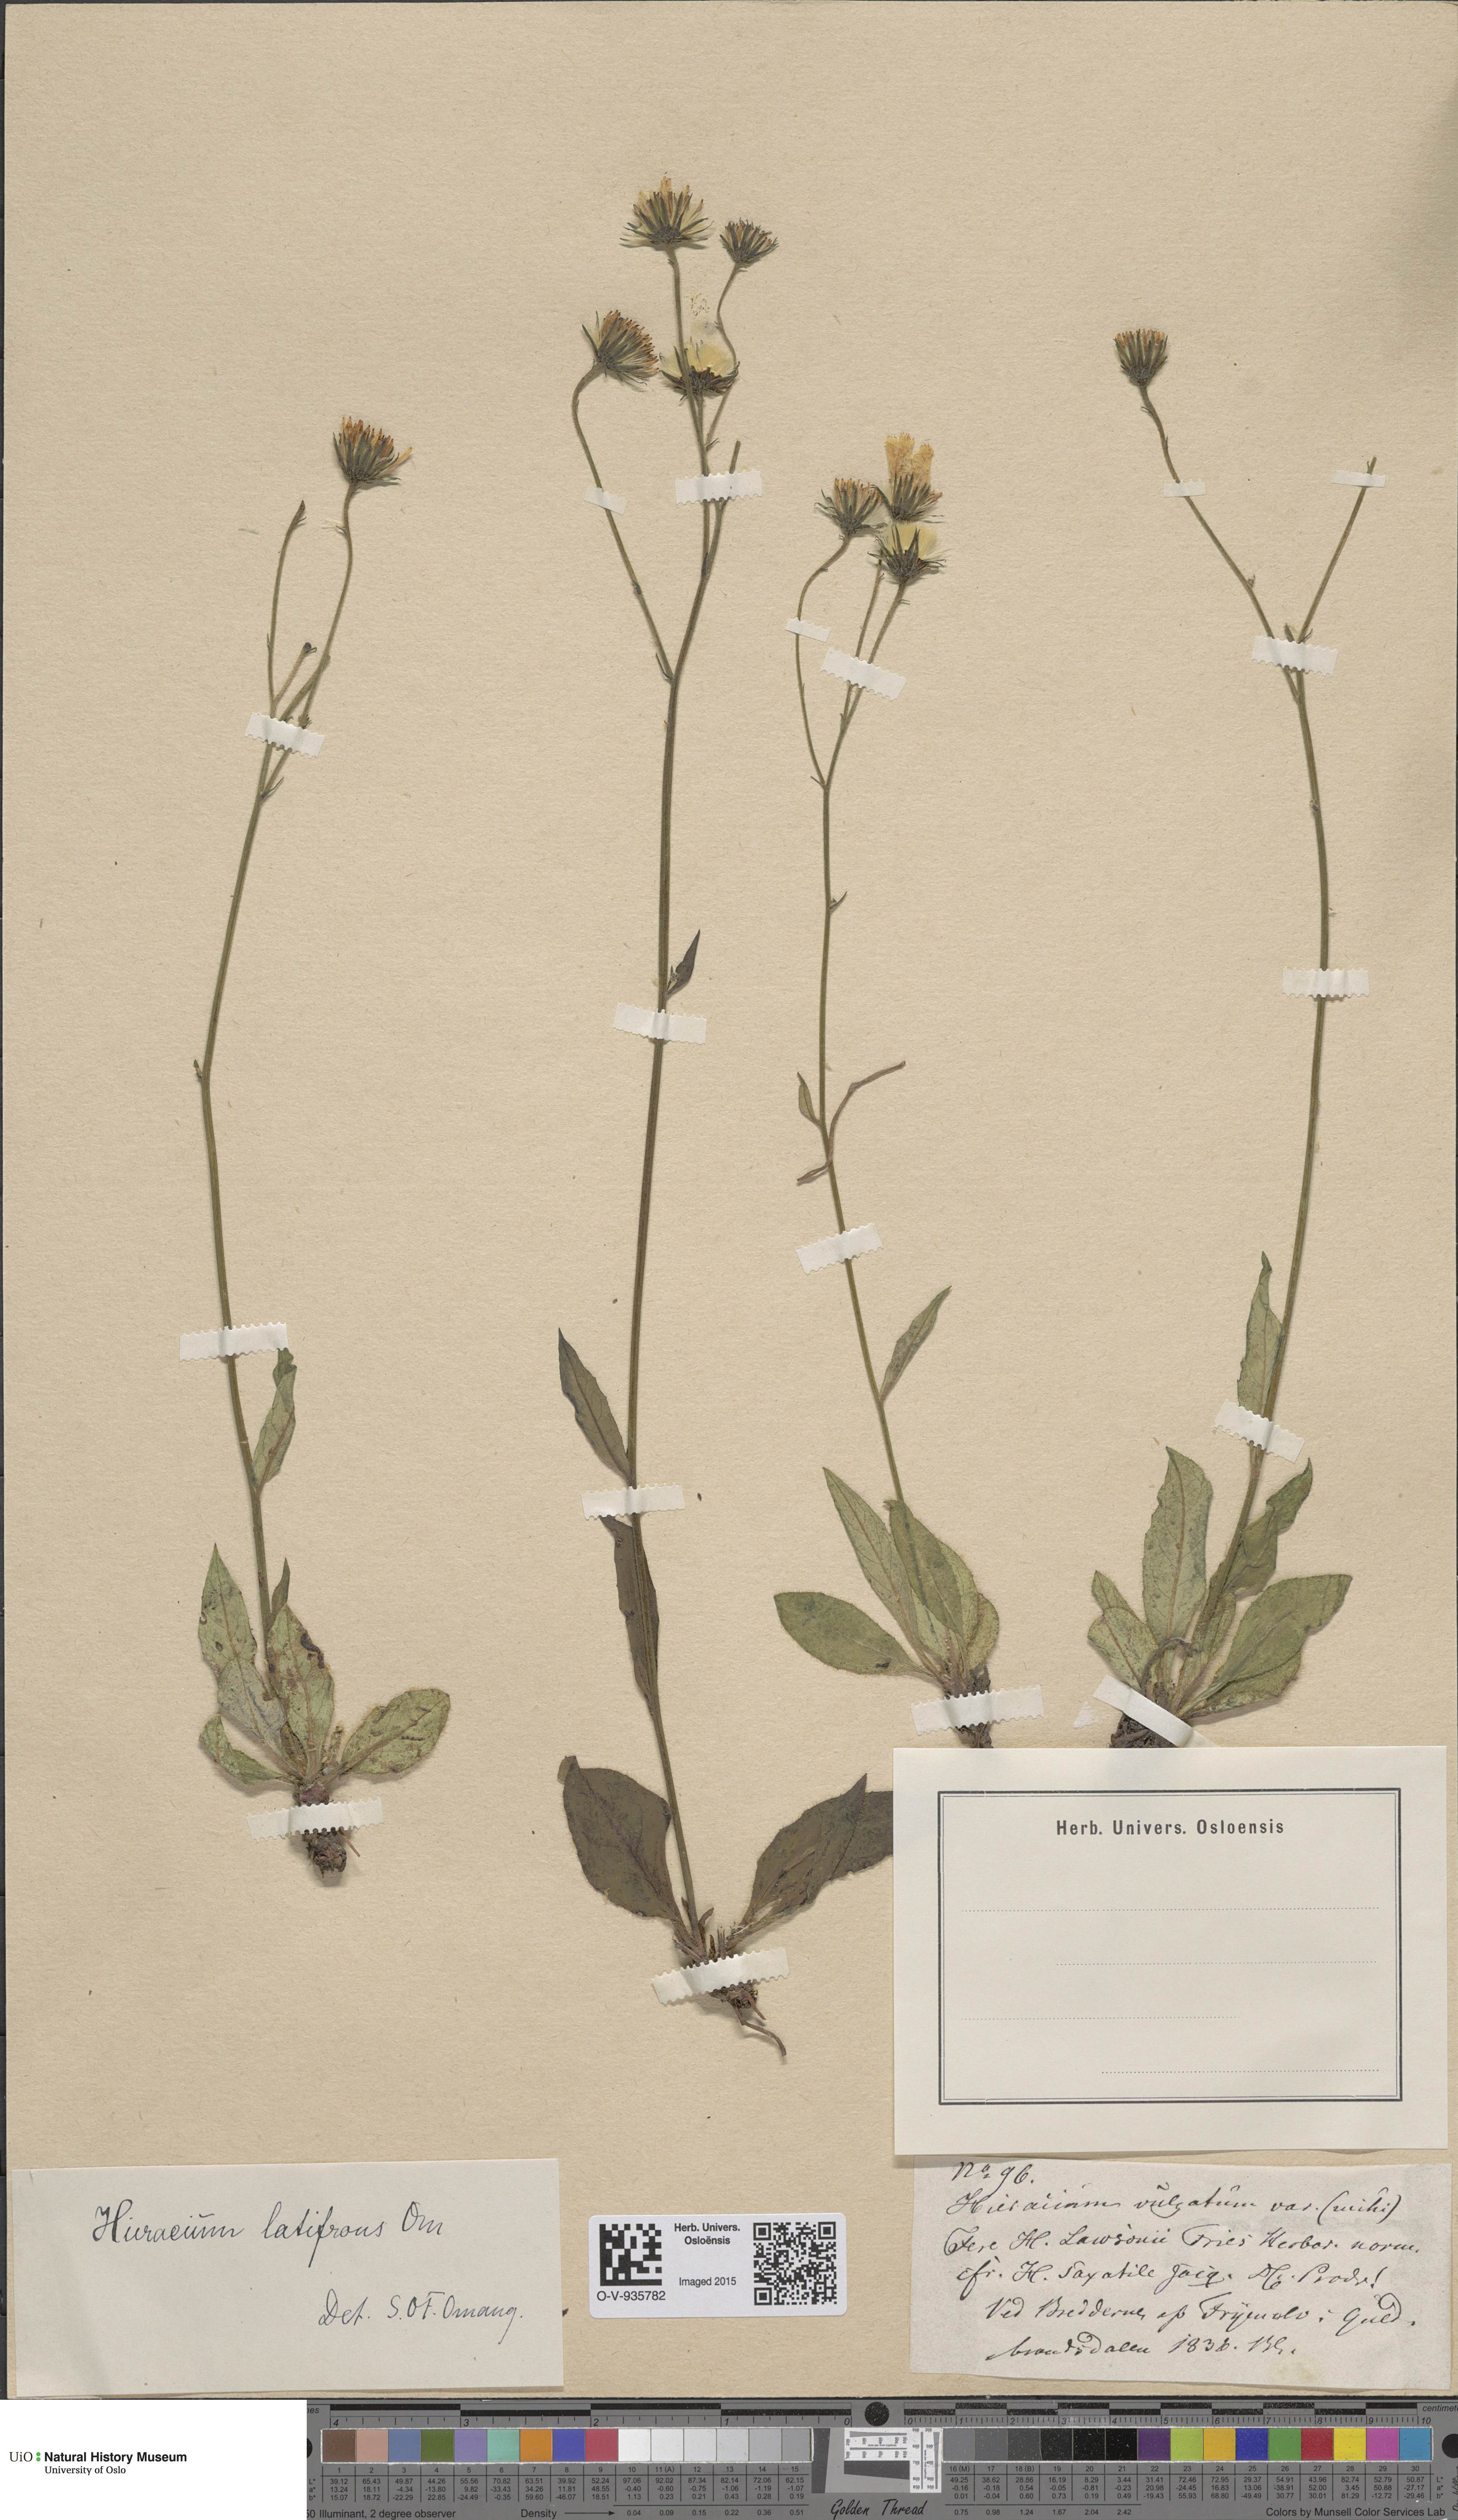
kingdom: Plantae
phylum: Tracheophyta
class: Magnoliopsida
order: Asterales
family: Asteraceae
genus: Hieracium
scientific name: Hieracium saxifragum
